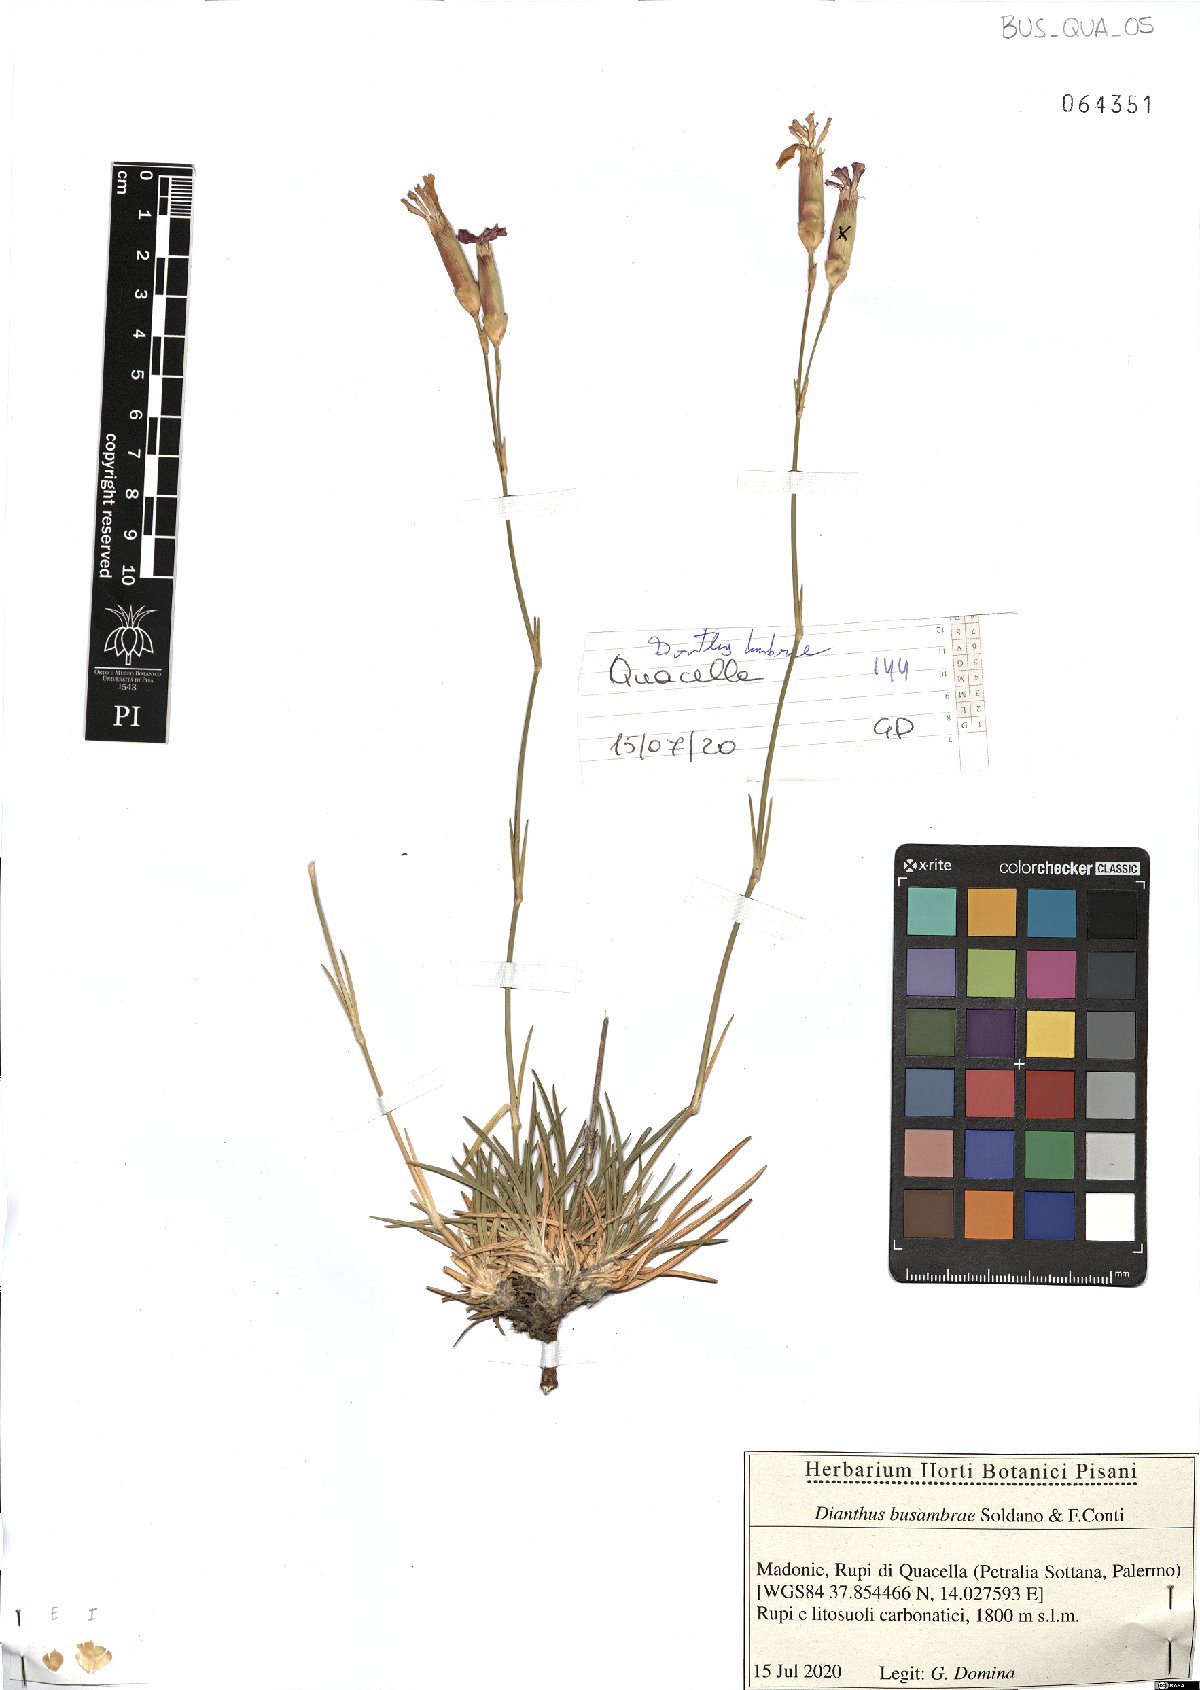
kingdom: Plantae
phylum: Tracheophyta
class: Magnoliopsida
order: Caryophyllales
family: Caryophyllaceae
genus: Dianthus
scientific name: Dianthus busambrae
